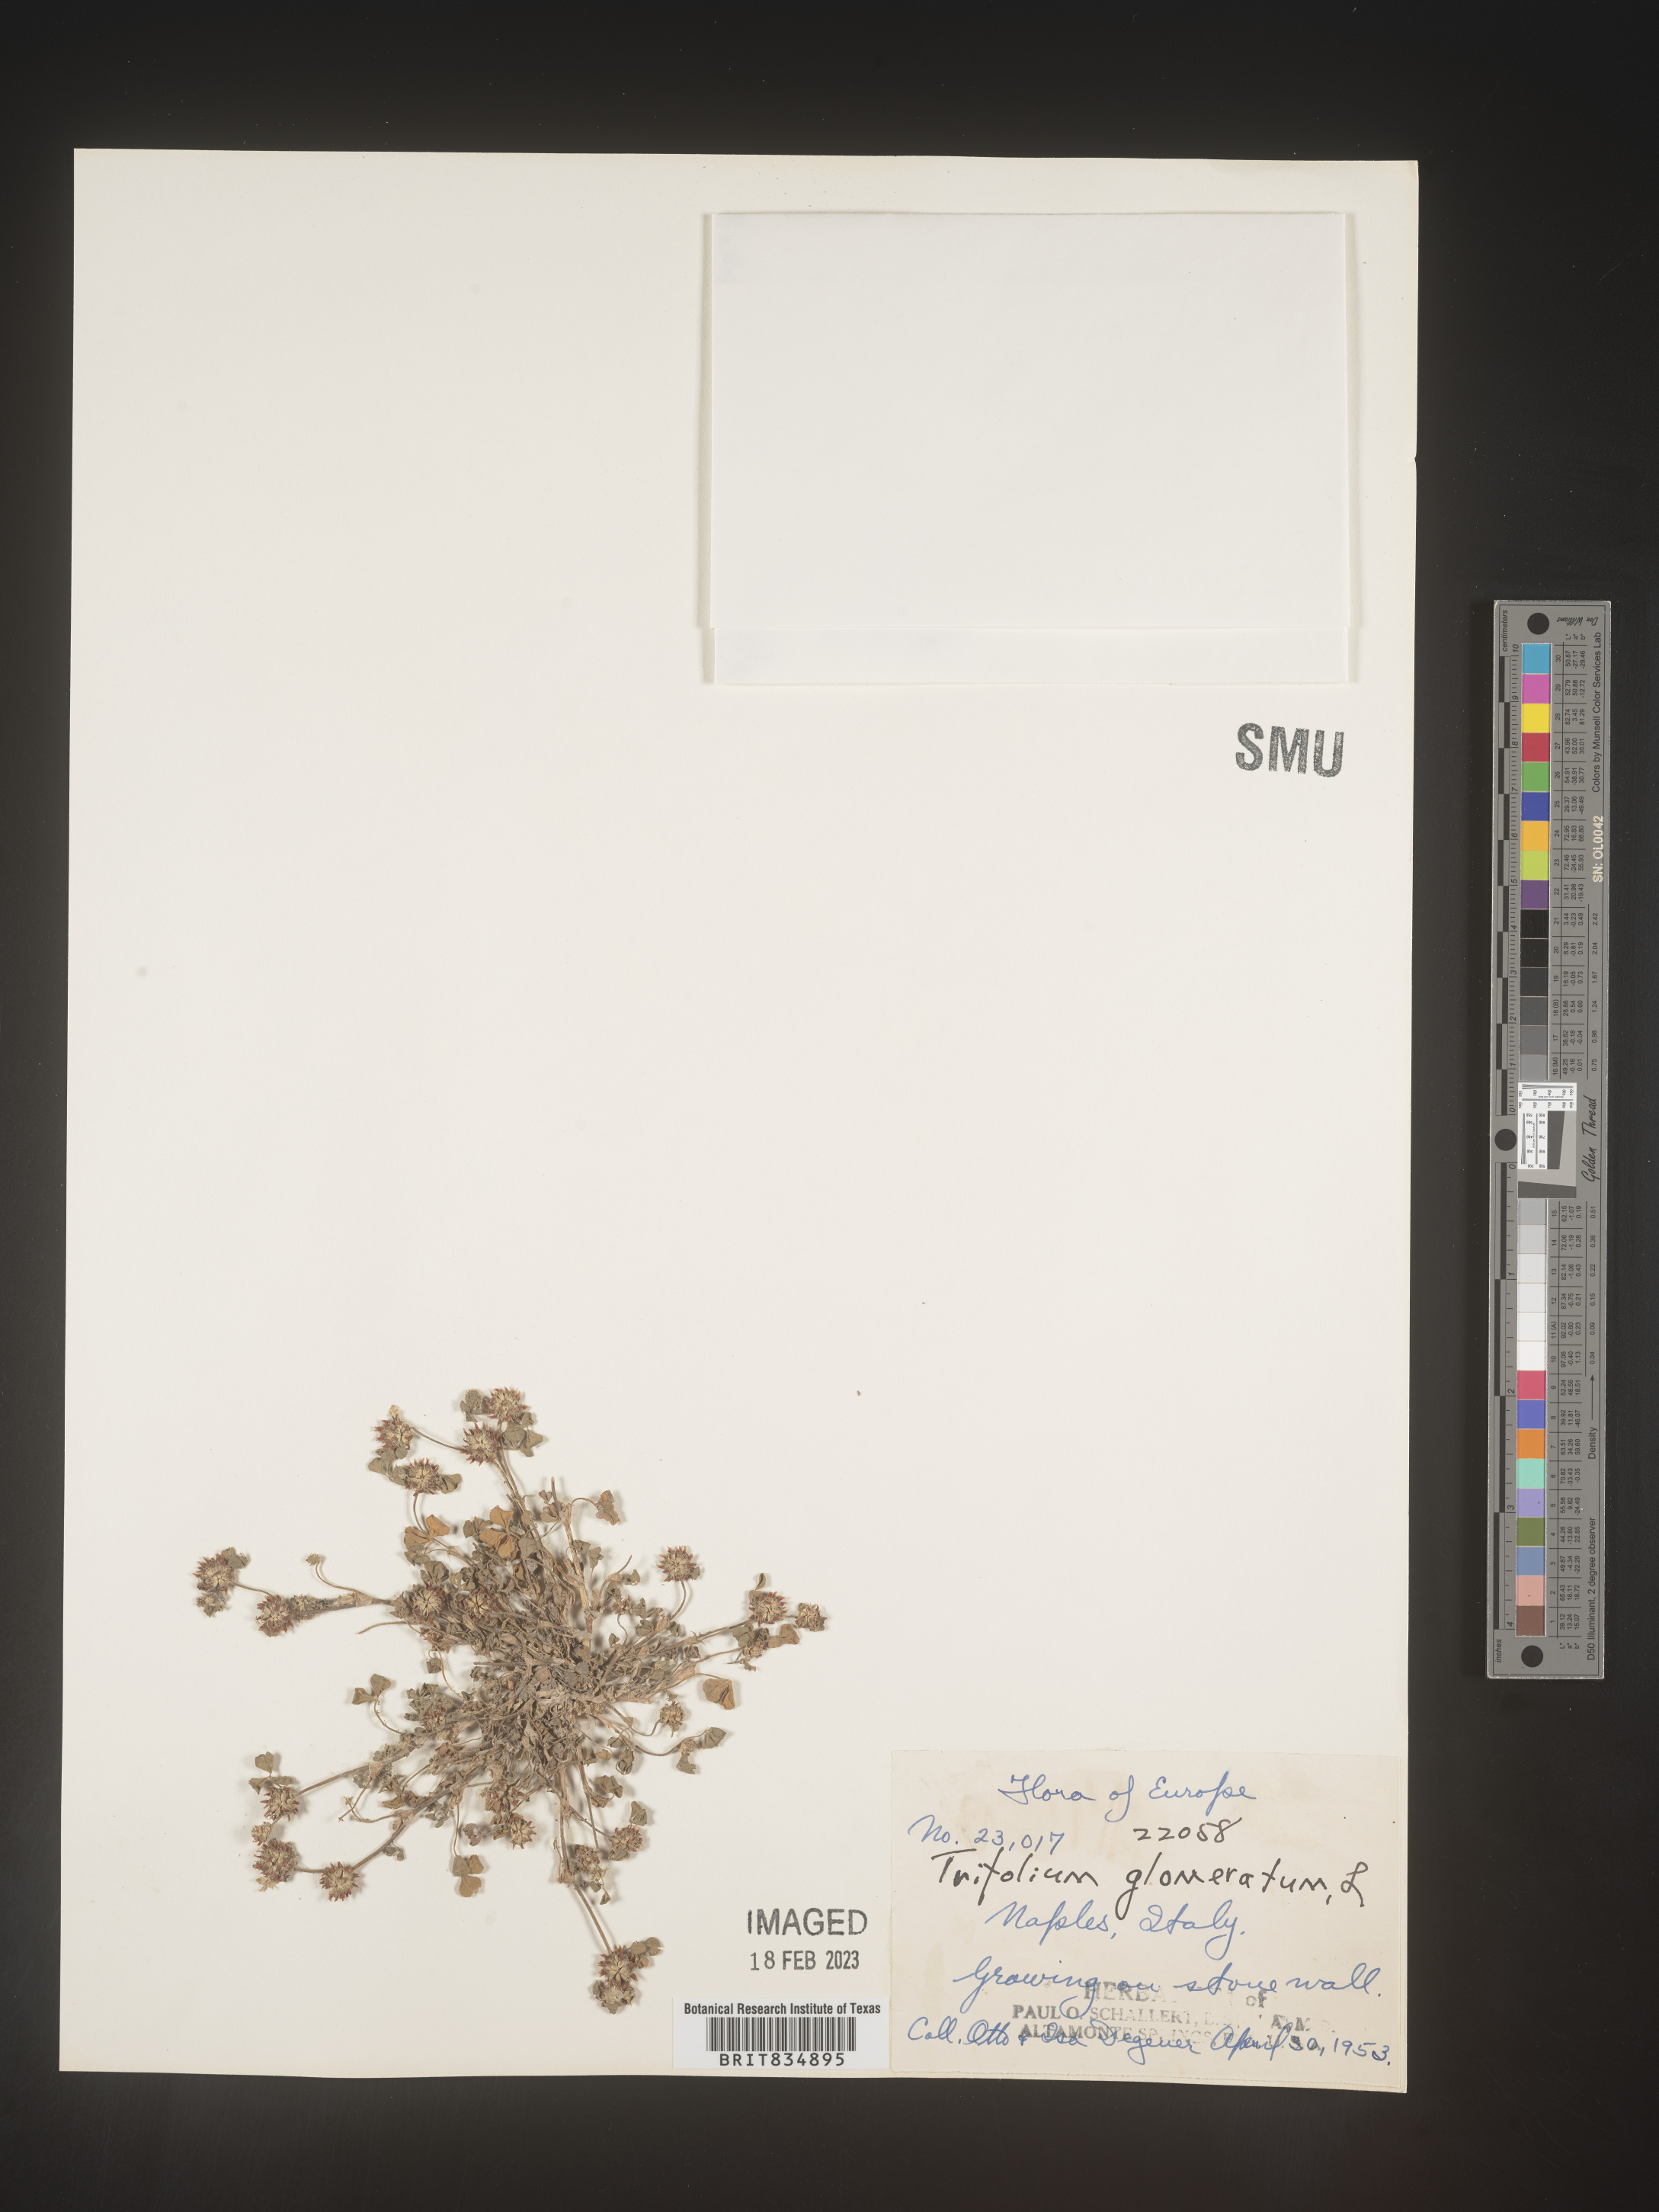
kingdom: Plantae
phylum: Tracheophyta
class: Magnoliopsida
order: Fabales
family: Fabaceae
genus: Trifolium
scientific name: Trifolium
